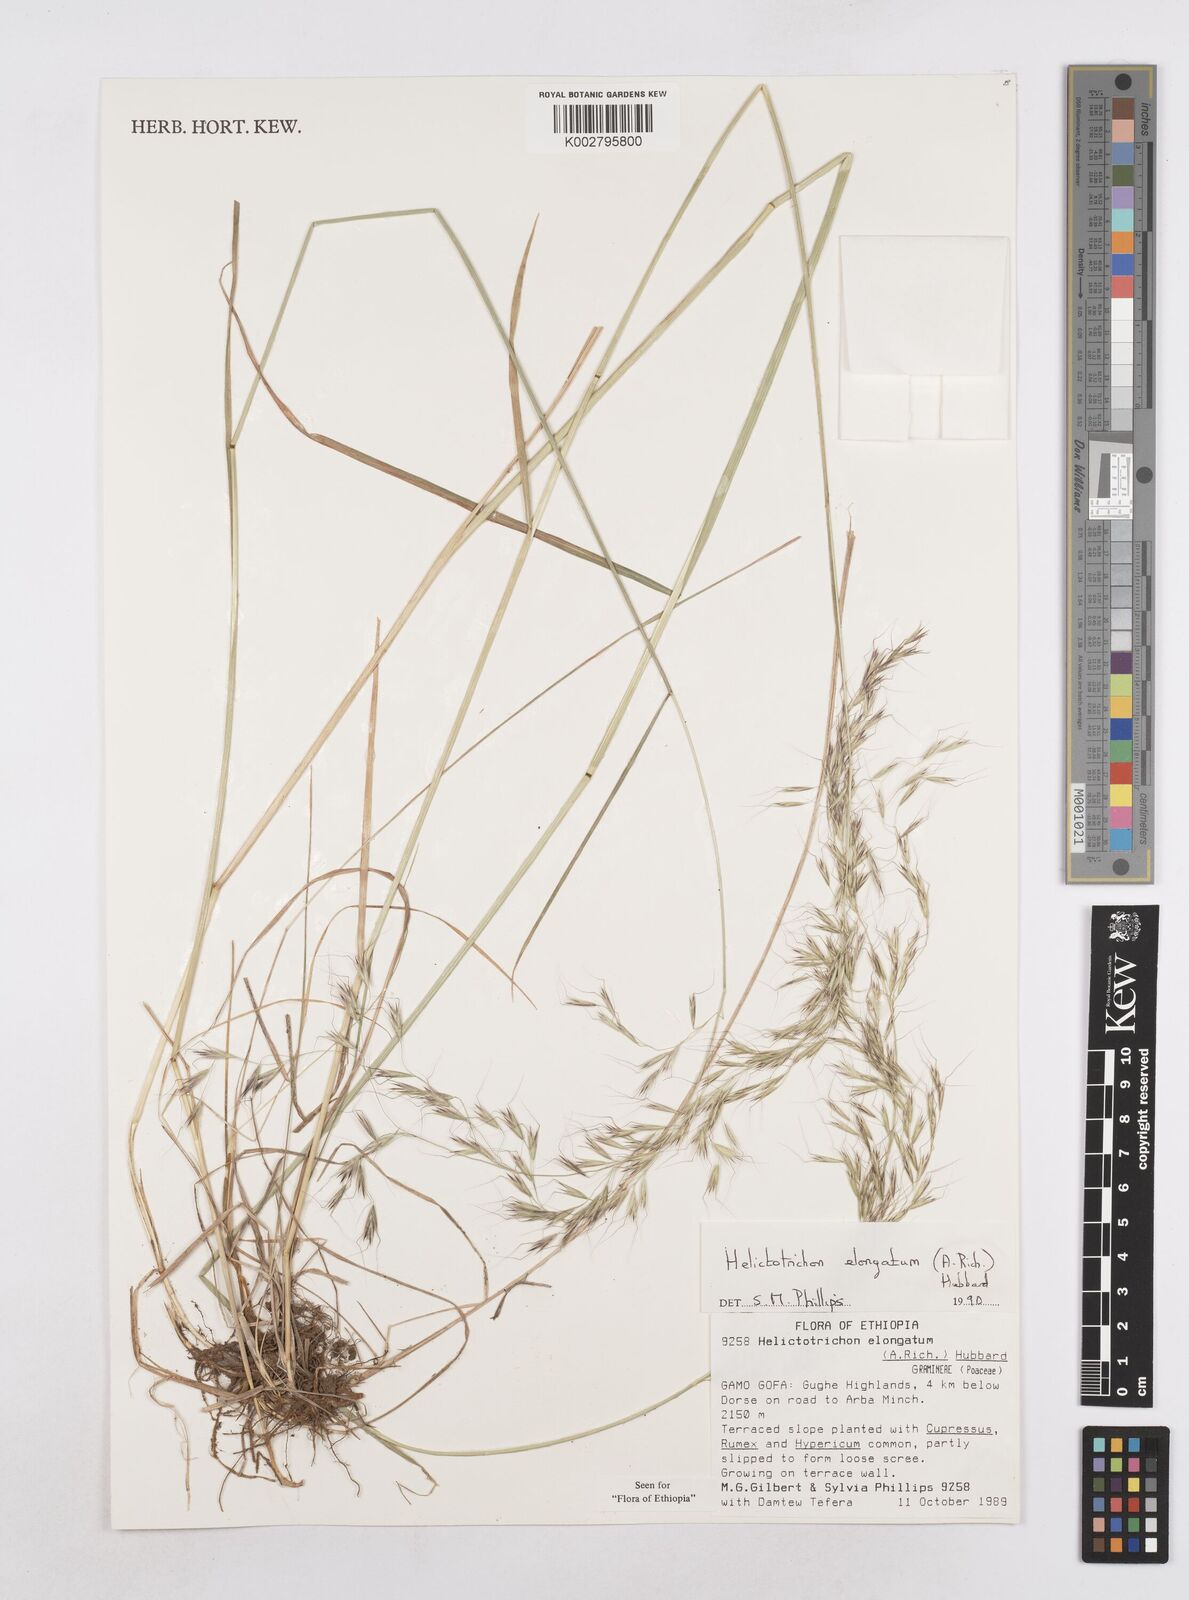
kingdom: Plantae
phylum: Tracheophyta
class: Liliopsida
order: Poales
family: Poaceae
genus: Trisetopsis
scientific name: Trisetopsis elongata
